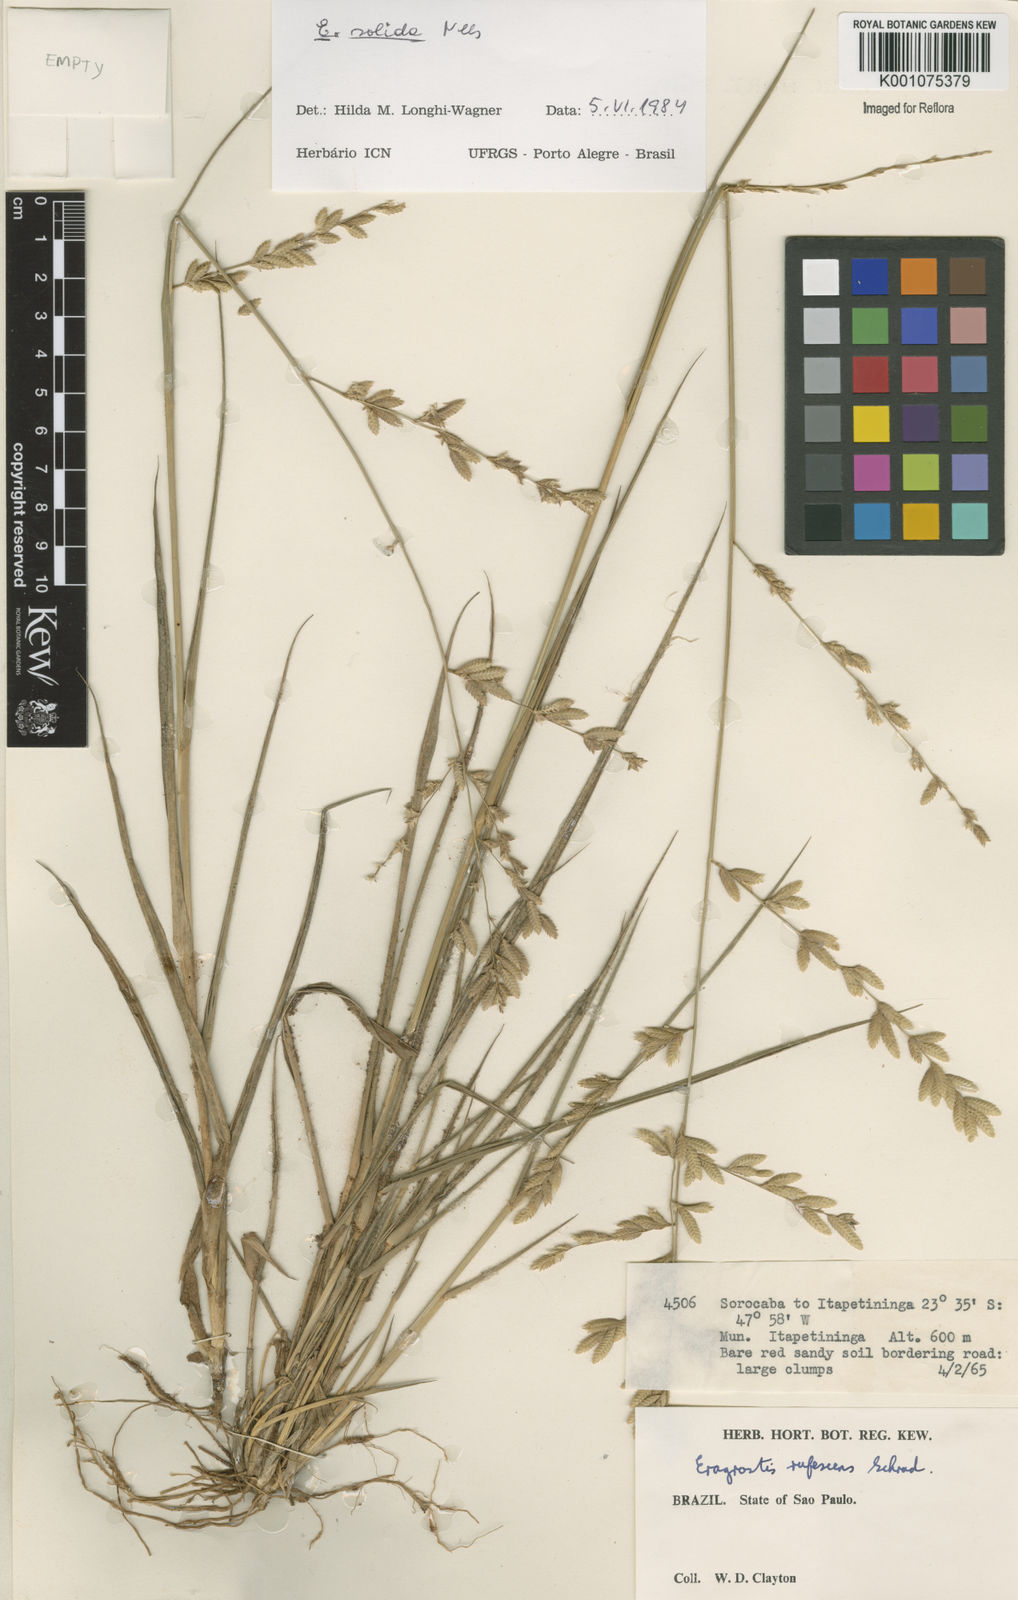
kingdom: Plantae
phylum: Tracheophyta
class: Liliopsida
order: Poales
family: Poaceae
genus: Eragrostis
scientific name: Eragrostis solida
